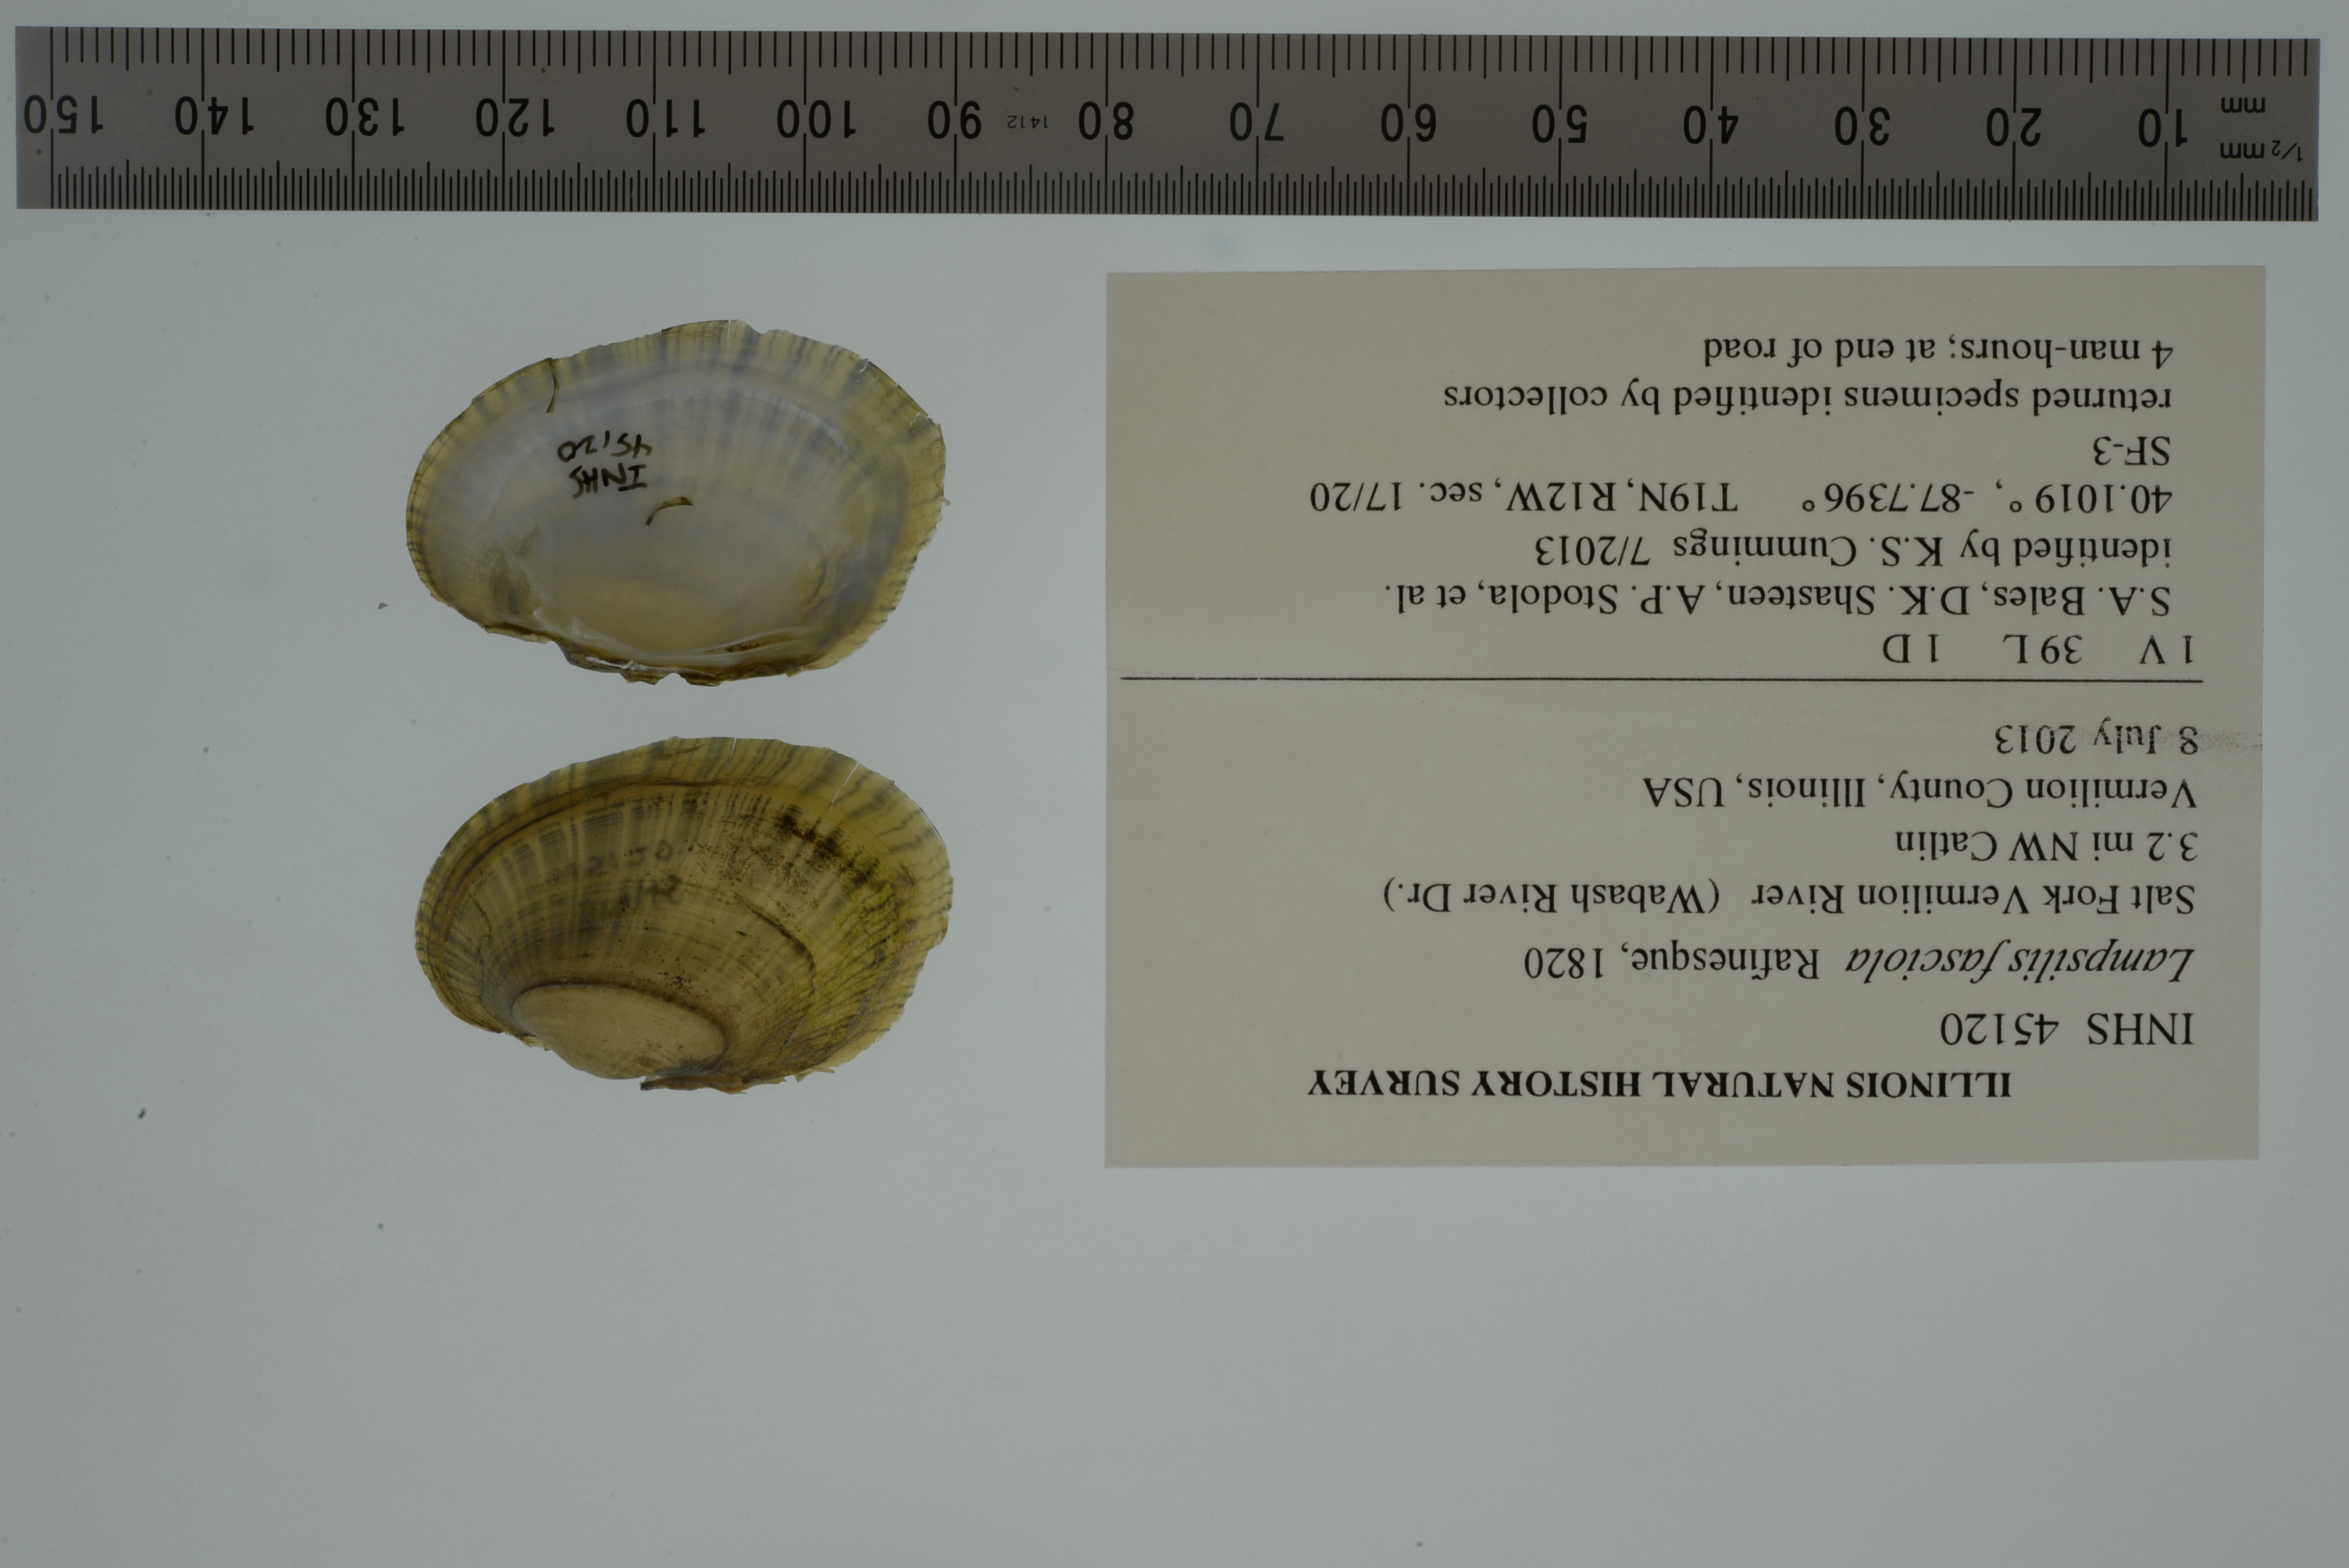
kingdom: Animalia
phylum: Mollusca
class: Bivalvia
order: Unionida
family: Unionidae
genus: Lampsilis
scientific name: Lampsilis fasciola
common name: Wavyrayed lampmussel
